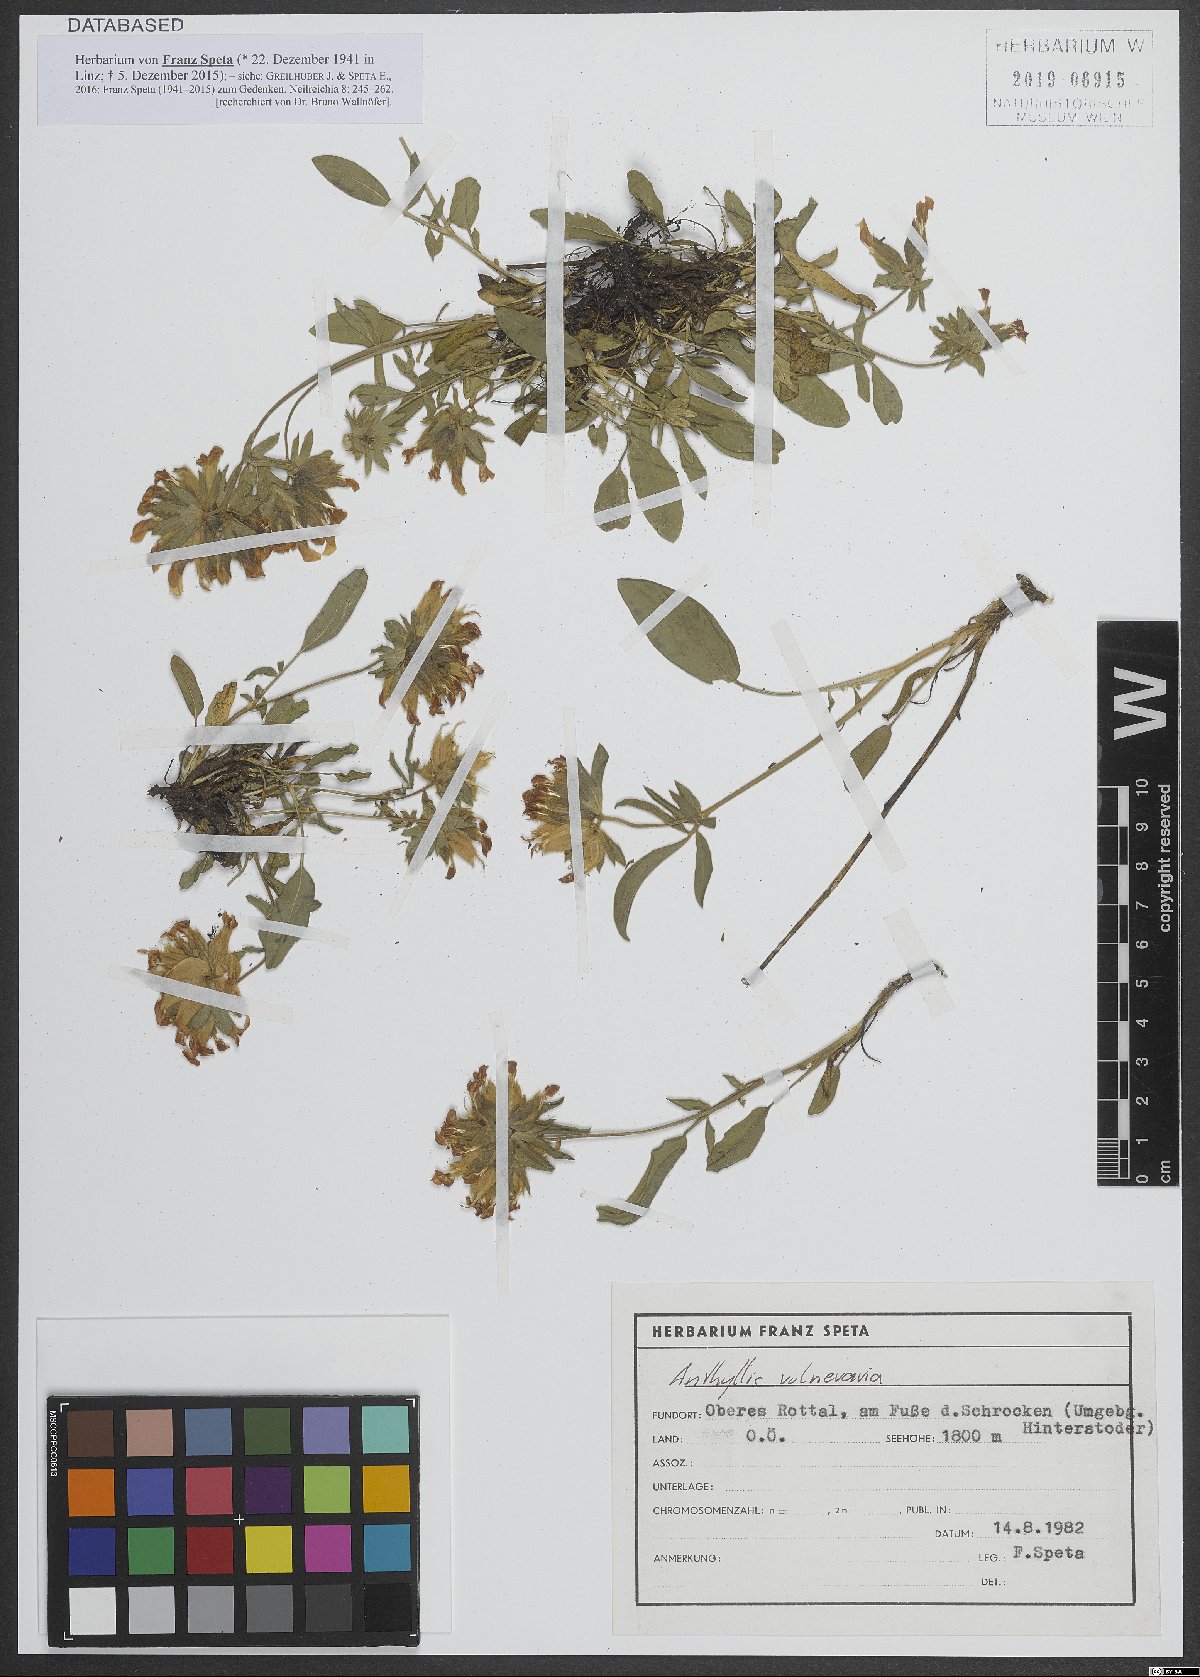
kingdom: Plantae
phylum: Tracheophyta
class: Magnoliopsida
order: Fabales
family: Fabaceae
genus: Anthyllis
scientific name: Anthyllis vulneraria
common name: Kidney vetch
